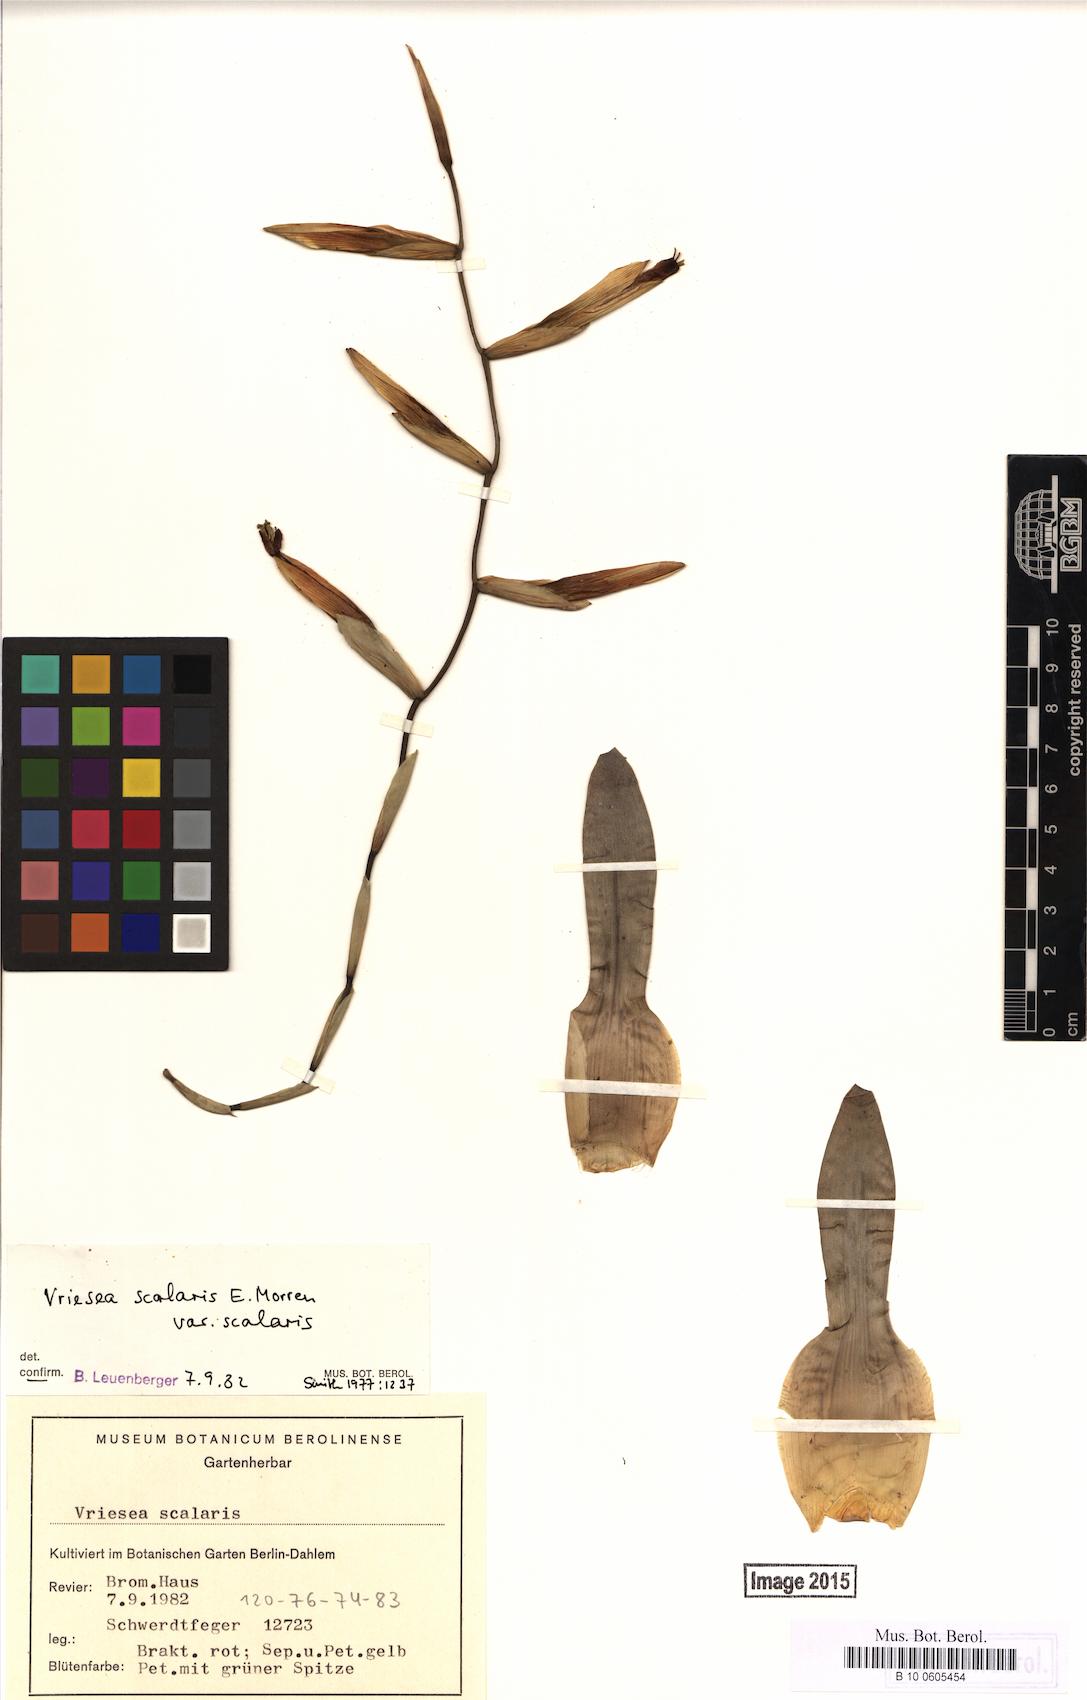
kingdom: Plantae
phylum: Tracheophyta
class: Liliopsida
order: Poales
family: Bromeliaceae
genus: Vriesea
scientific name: Vriesea scalaris
